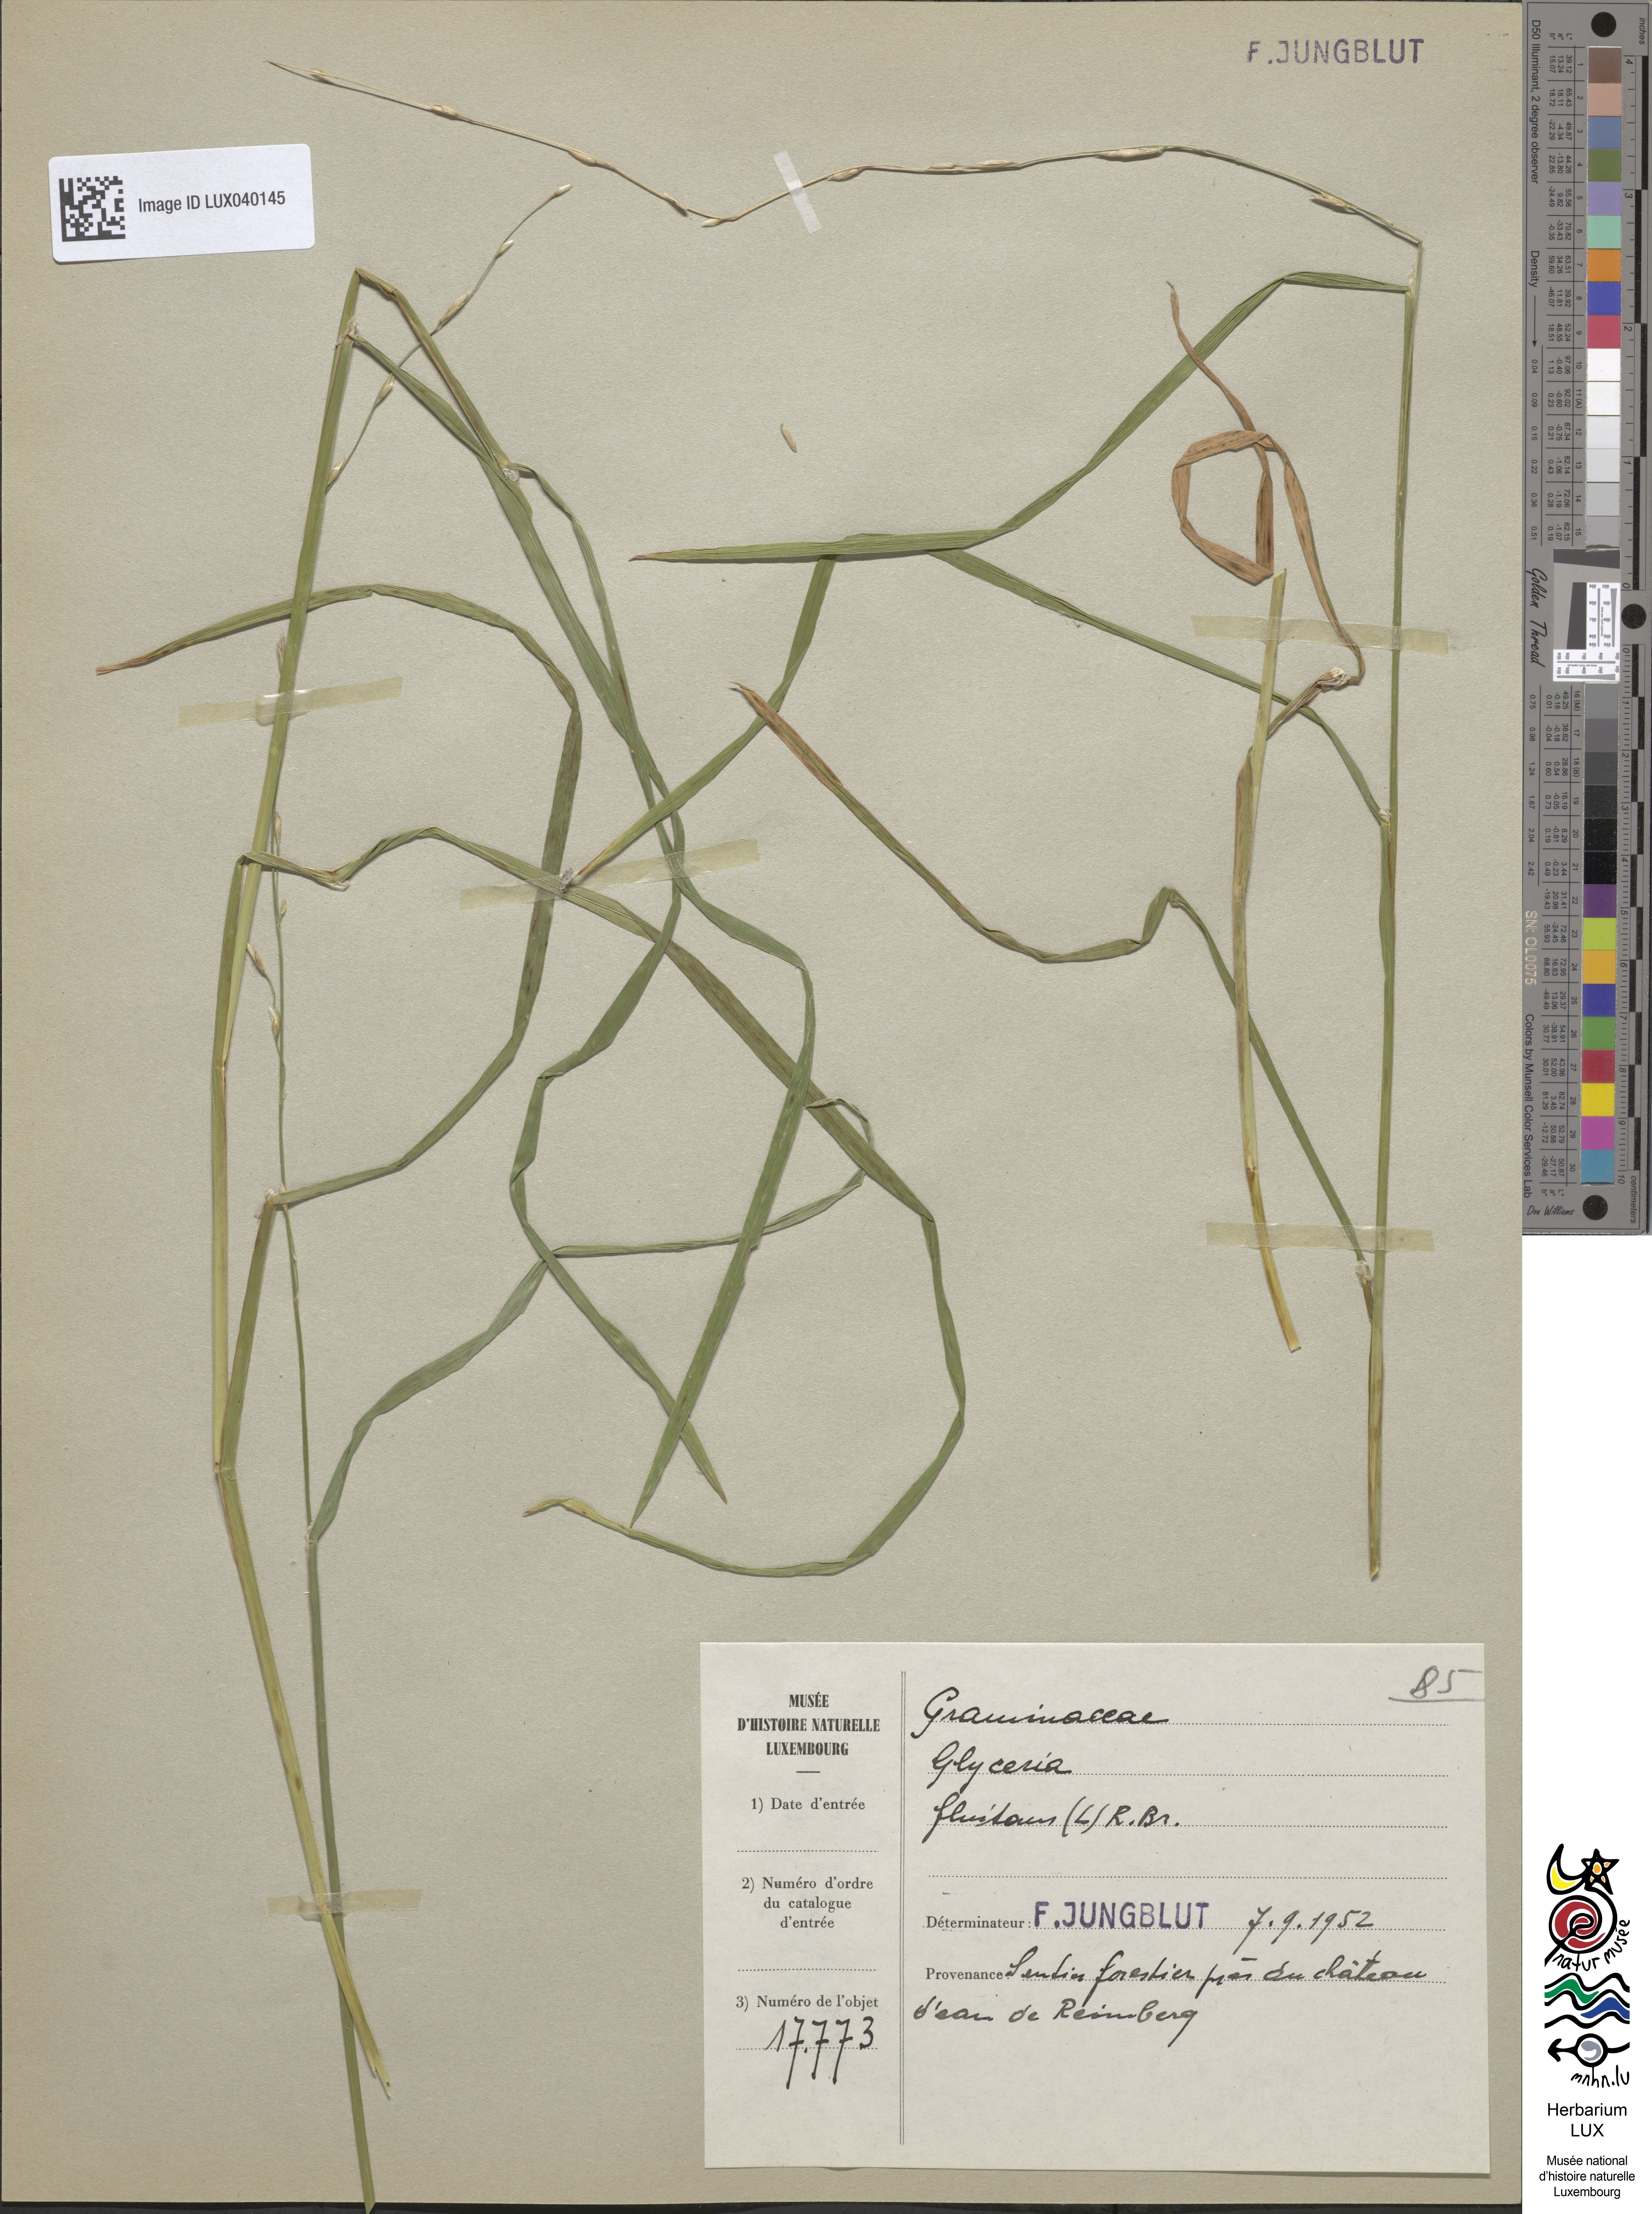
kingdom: Plantae
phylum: Tracheophyta
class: Liliopsida
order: Poales
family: Poaceae
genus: Glyceria
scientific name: Glyceria fluitans
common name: Floating sweet-grass
